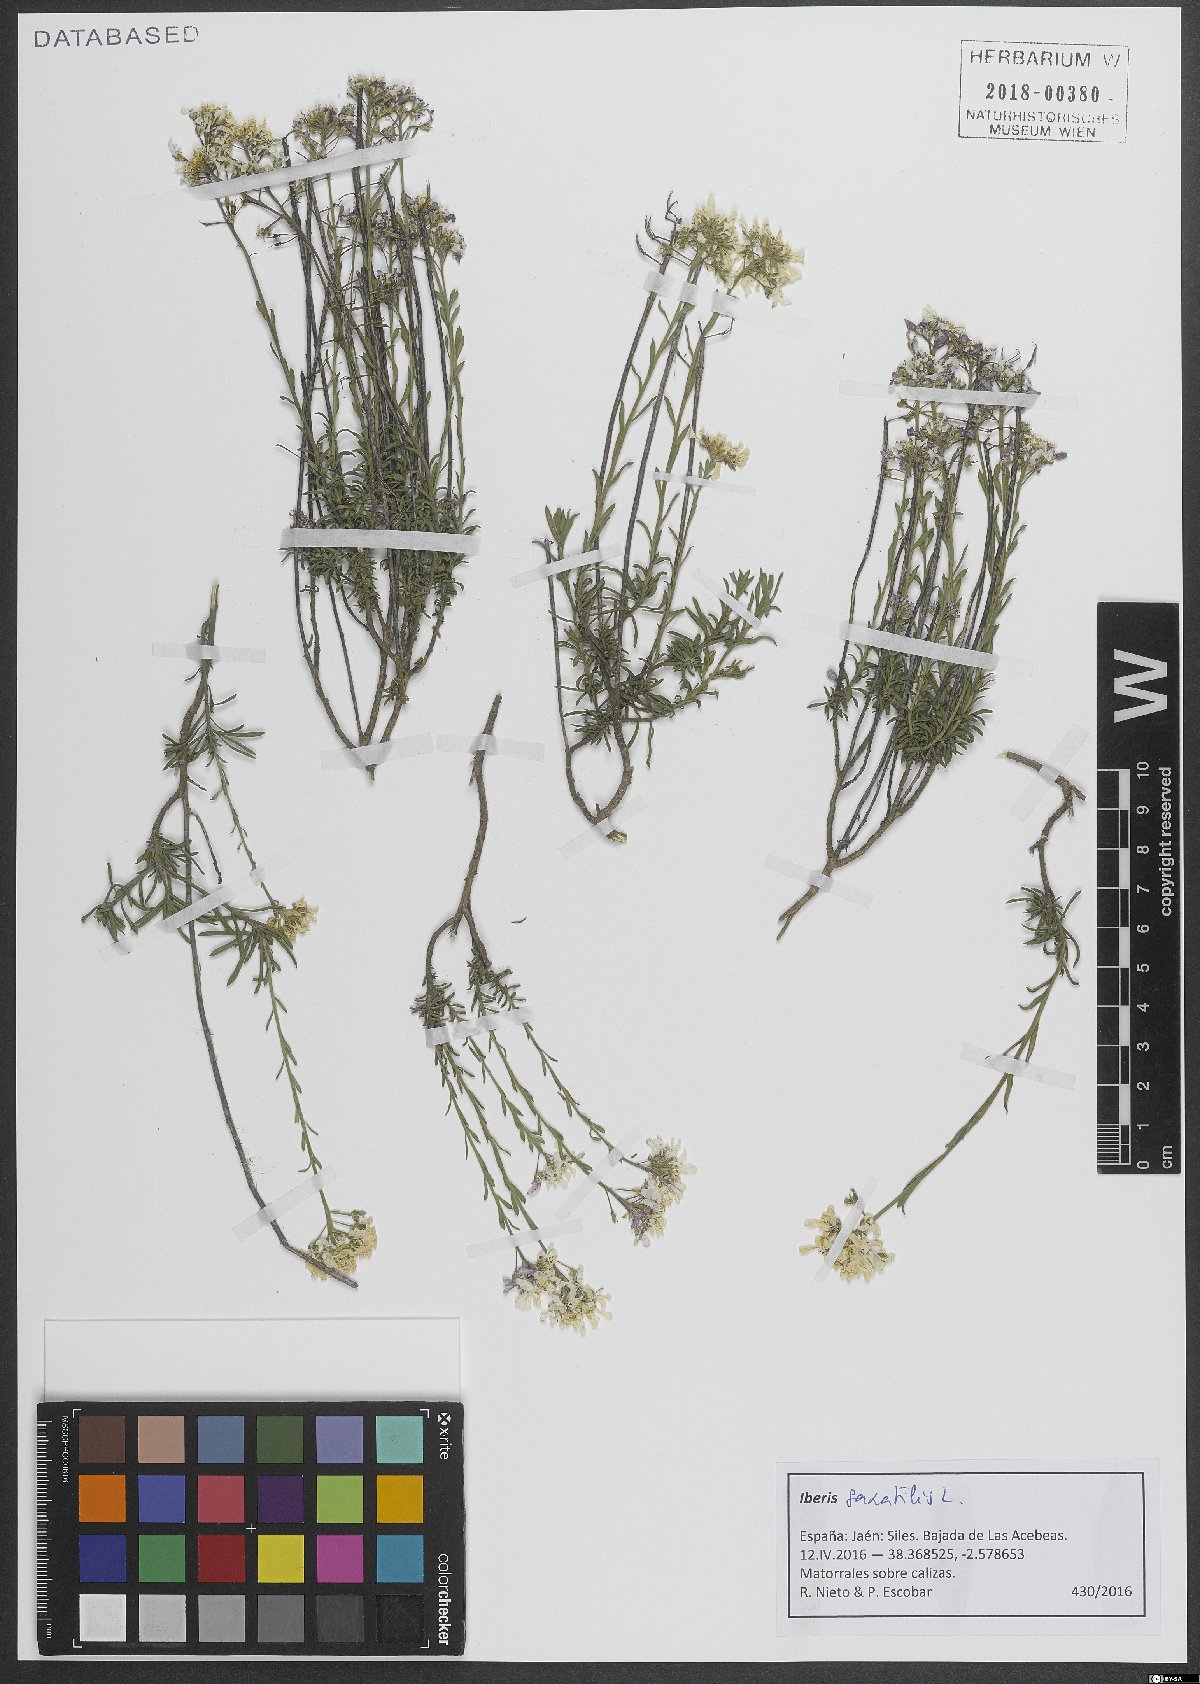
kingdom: Plantae
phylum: Tracheophyta
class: Magnoliopsida
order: Brassicales
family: Brassicaceae
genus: Iberis
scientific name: Iberis saxatilis
